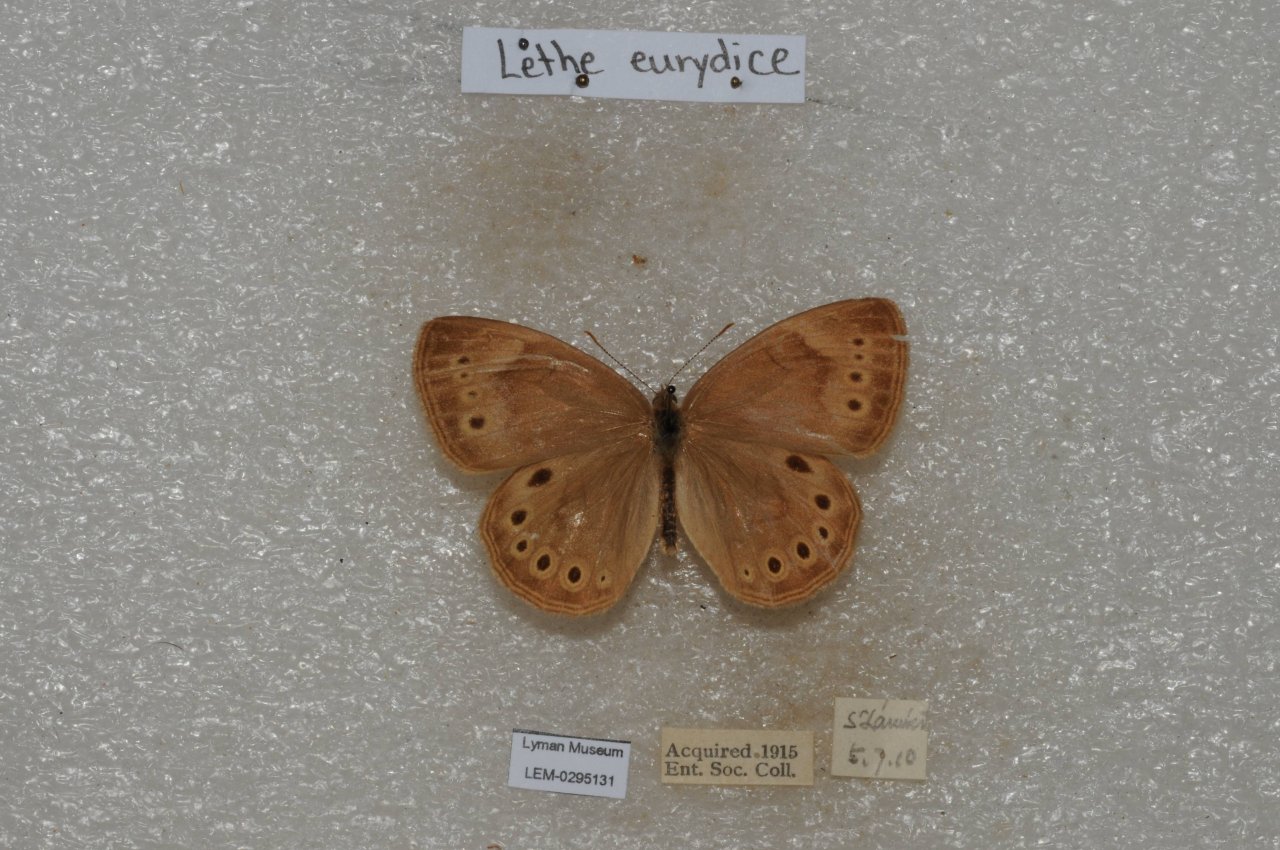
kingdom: Animalia
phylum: Arthropoda
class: Insecta
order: Lepidoptera
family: Nymphalidae
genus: Lethe
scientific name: Lethe eurydice
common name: Eyed Brown
